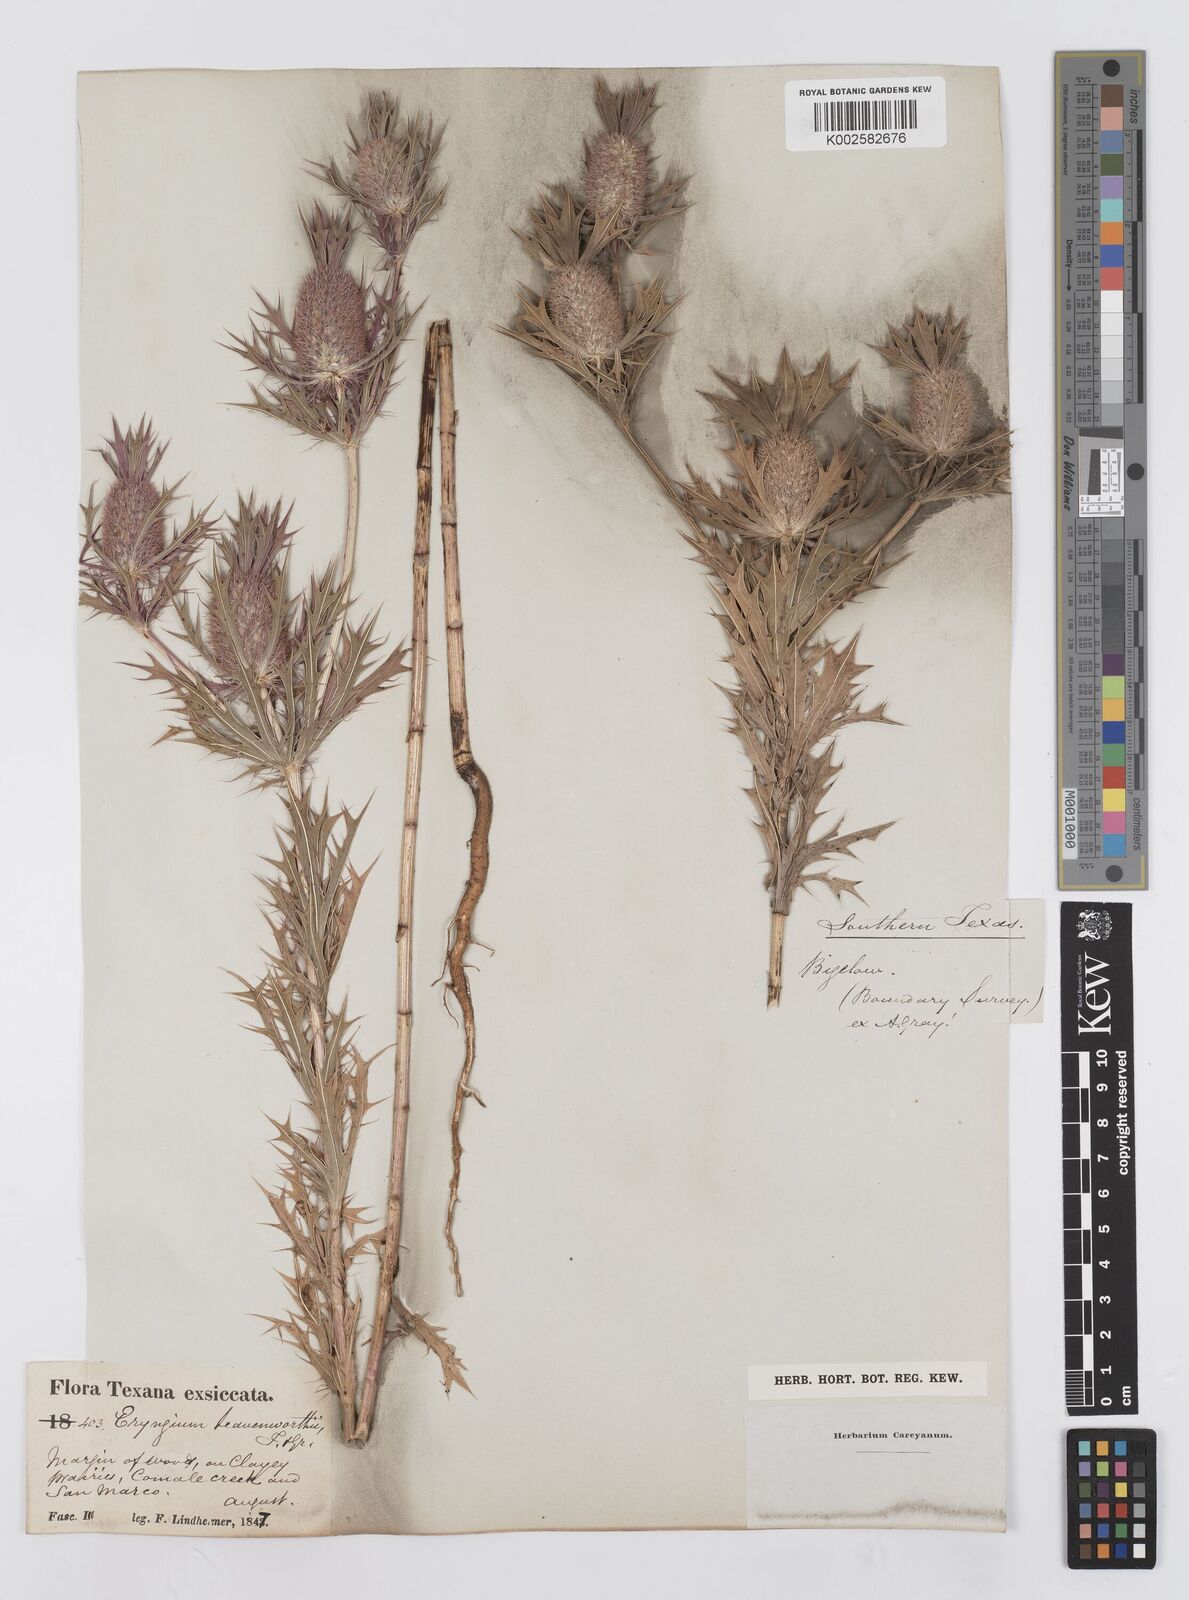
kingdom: Plantae
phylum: Tracheophyta
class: Magnoliopsida
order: Apiales
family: Apiaceae
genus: Eryngium
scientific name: Eryngium leavenworthii
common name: Leavenworth's eryngo
